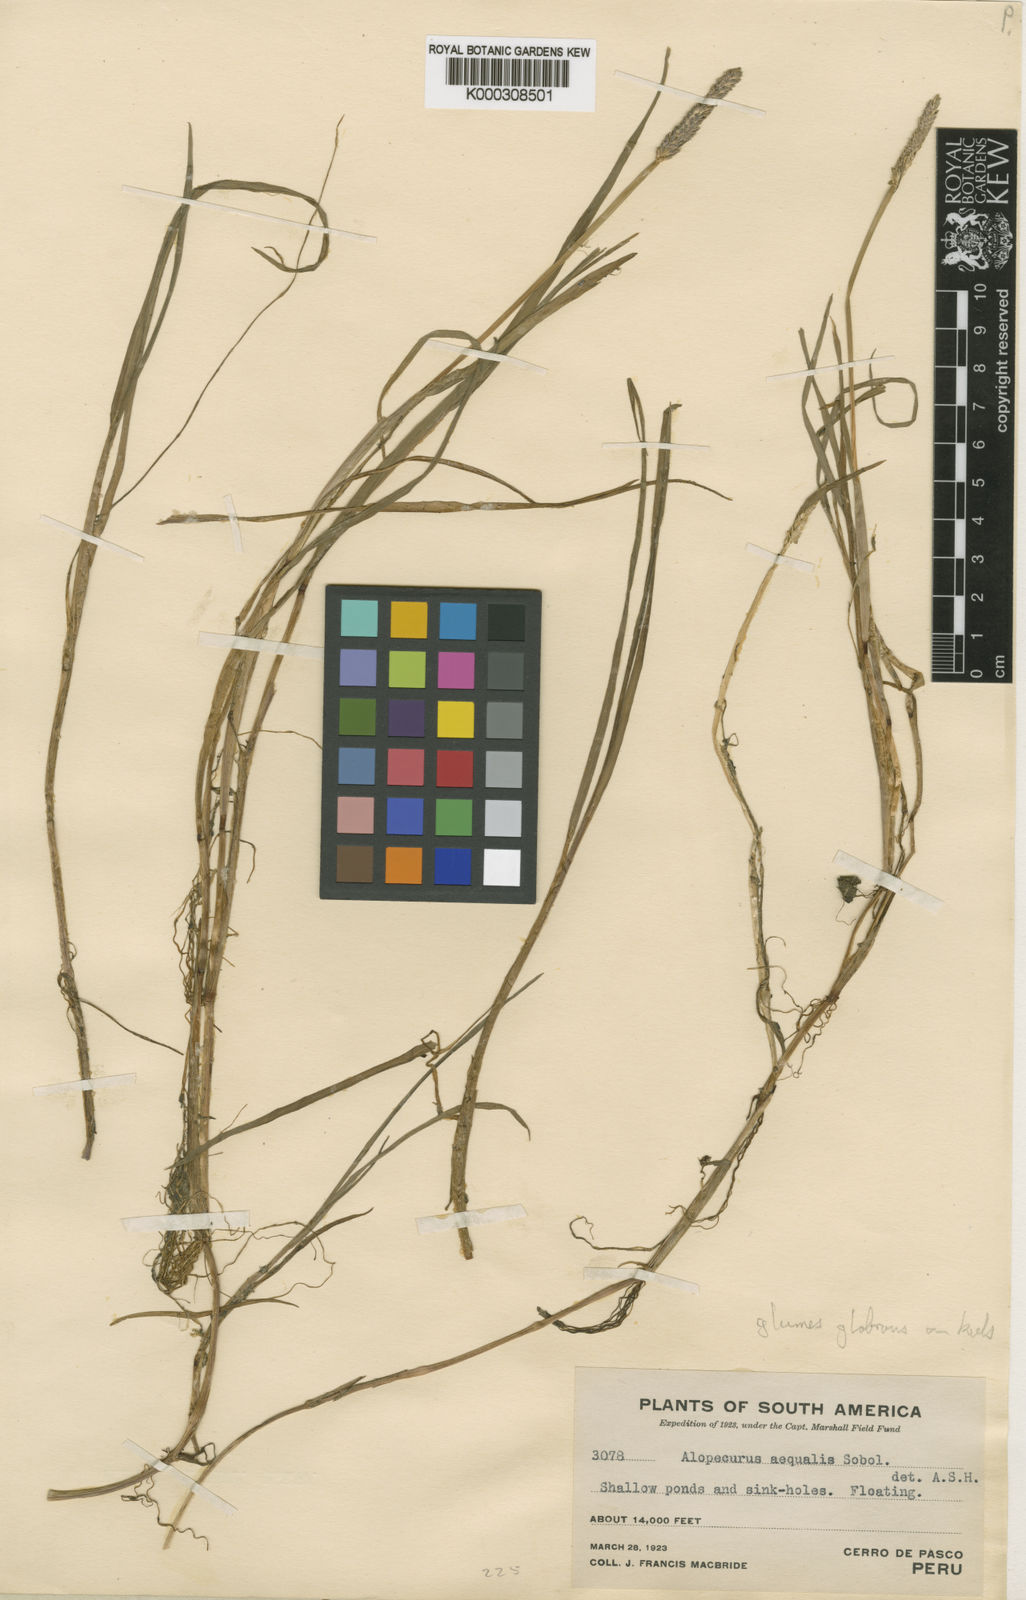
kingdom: Plantae
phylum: Tracheophyta
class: Liliopsida
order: Poales
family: Poaceae
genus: Alopecurus
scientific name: Alopecurus hitchcockii
